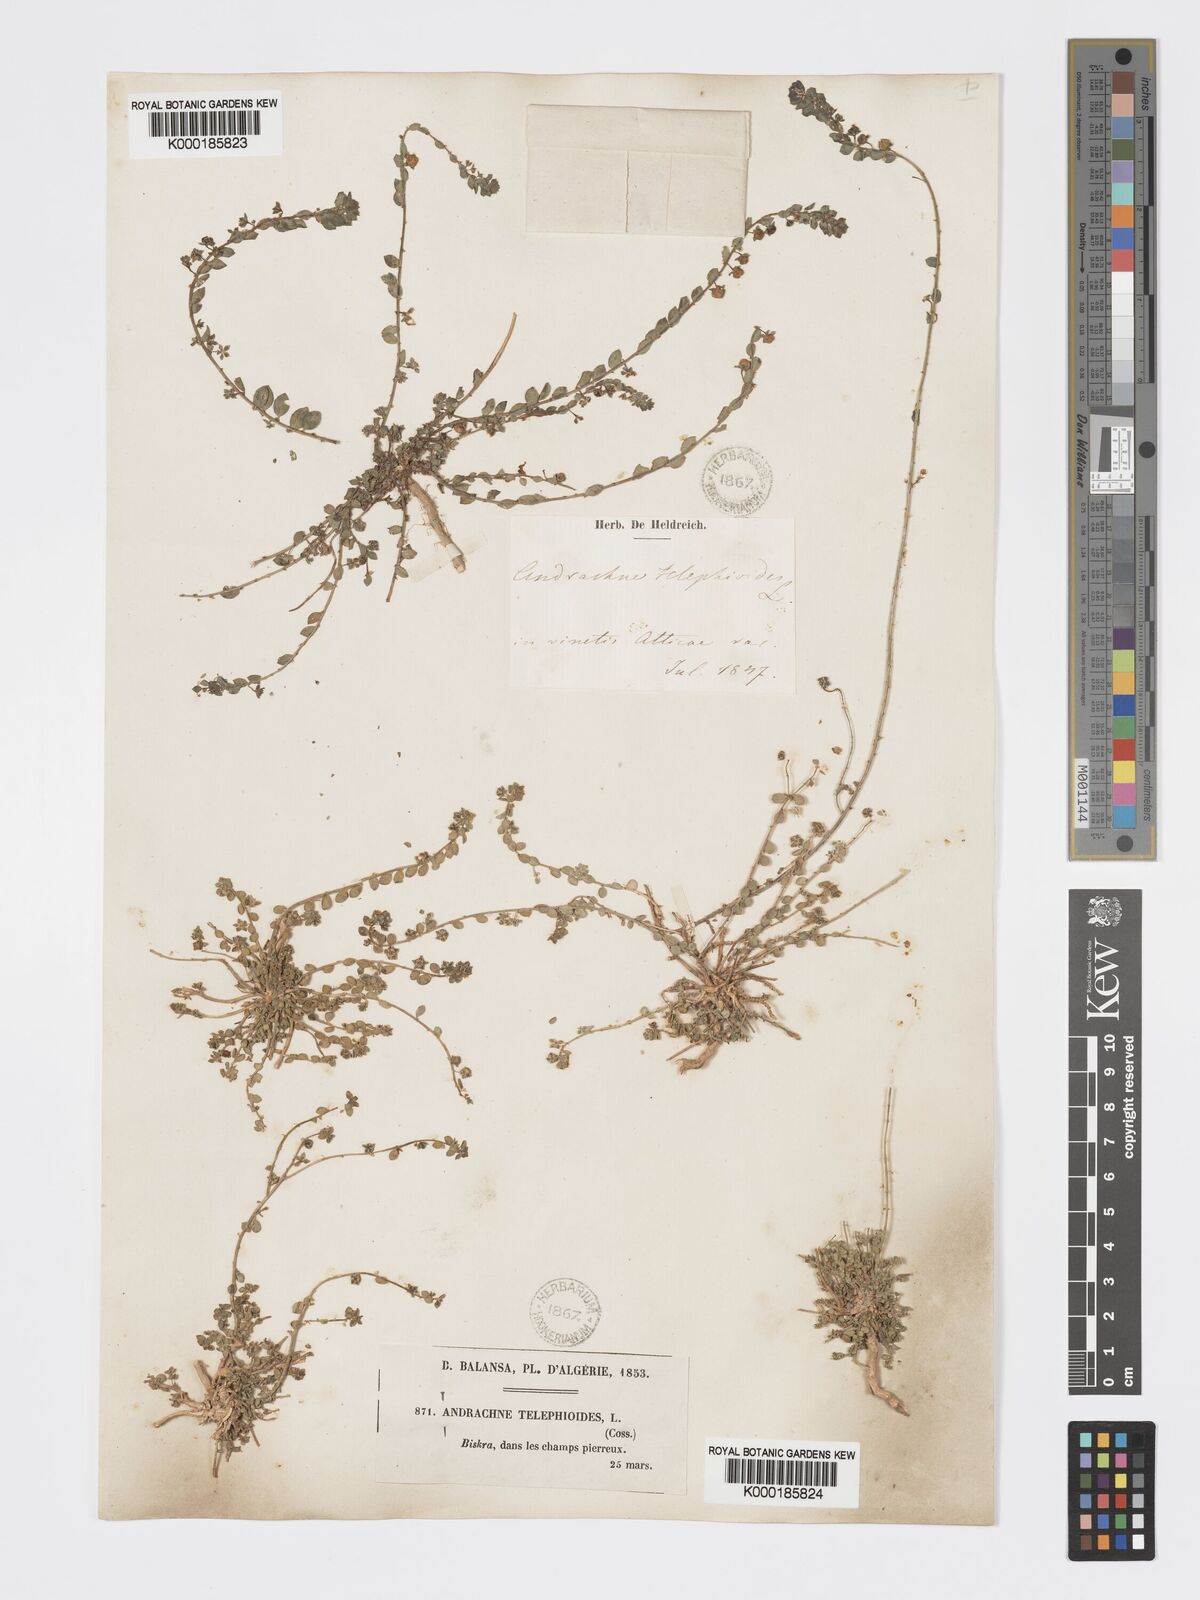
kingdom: Plantae
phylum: Tracheophyta
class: Magnoliopsida
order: Malpighiales
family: Phyllanthaceae
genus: Andrachne
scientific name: Andrachne telephioides
